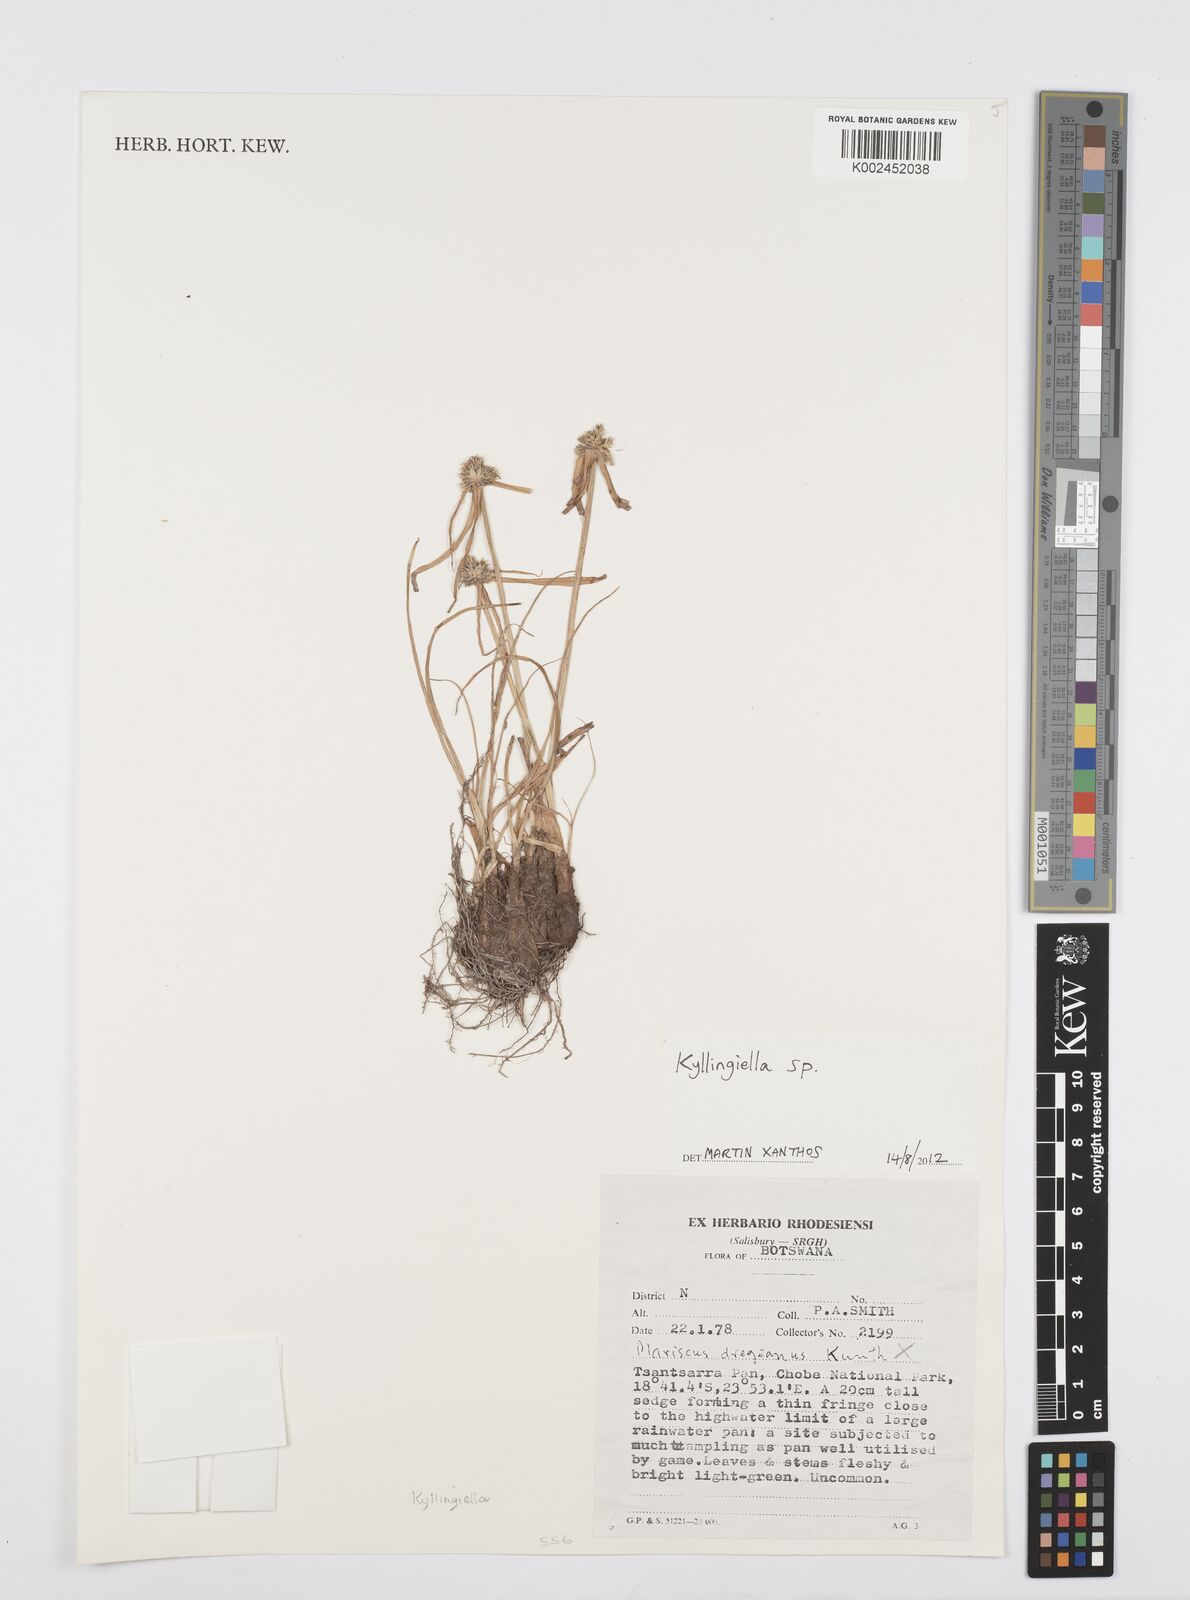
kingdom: Plantae
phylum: Tracheophyta
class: Liliopsida
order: Poales
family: Cyperaceae
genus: Cyperus
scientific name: Cyperus
